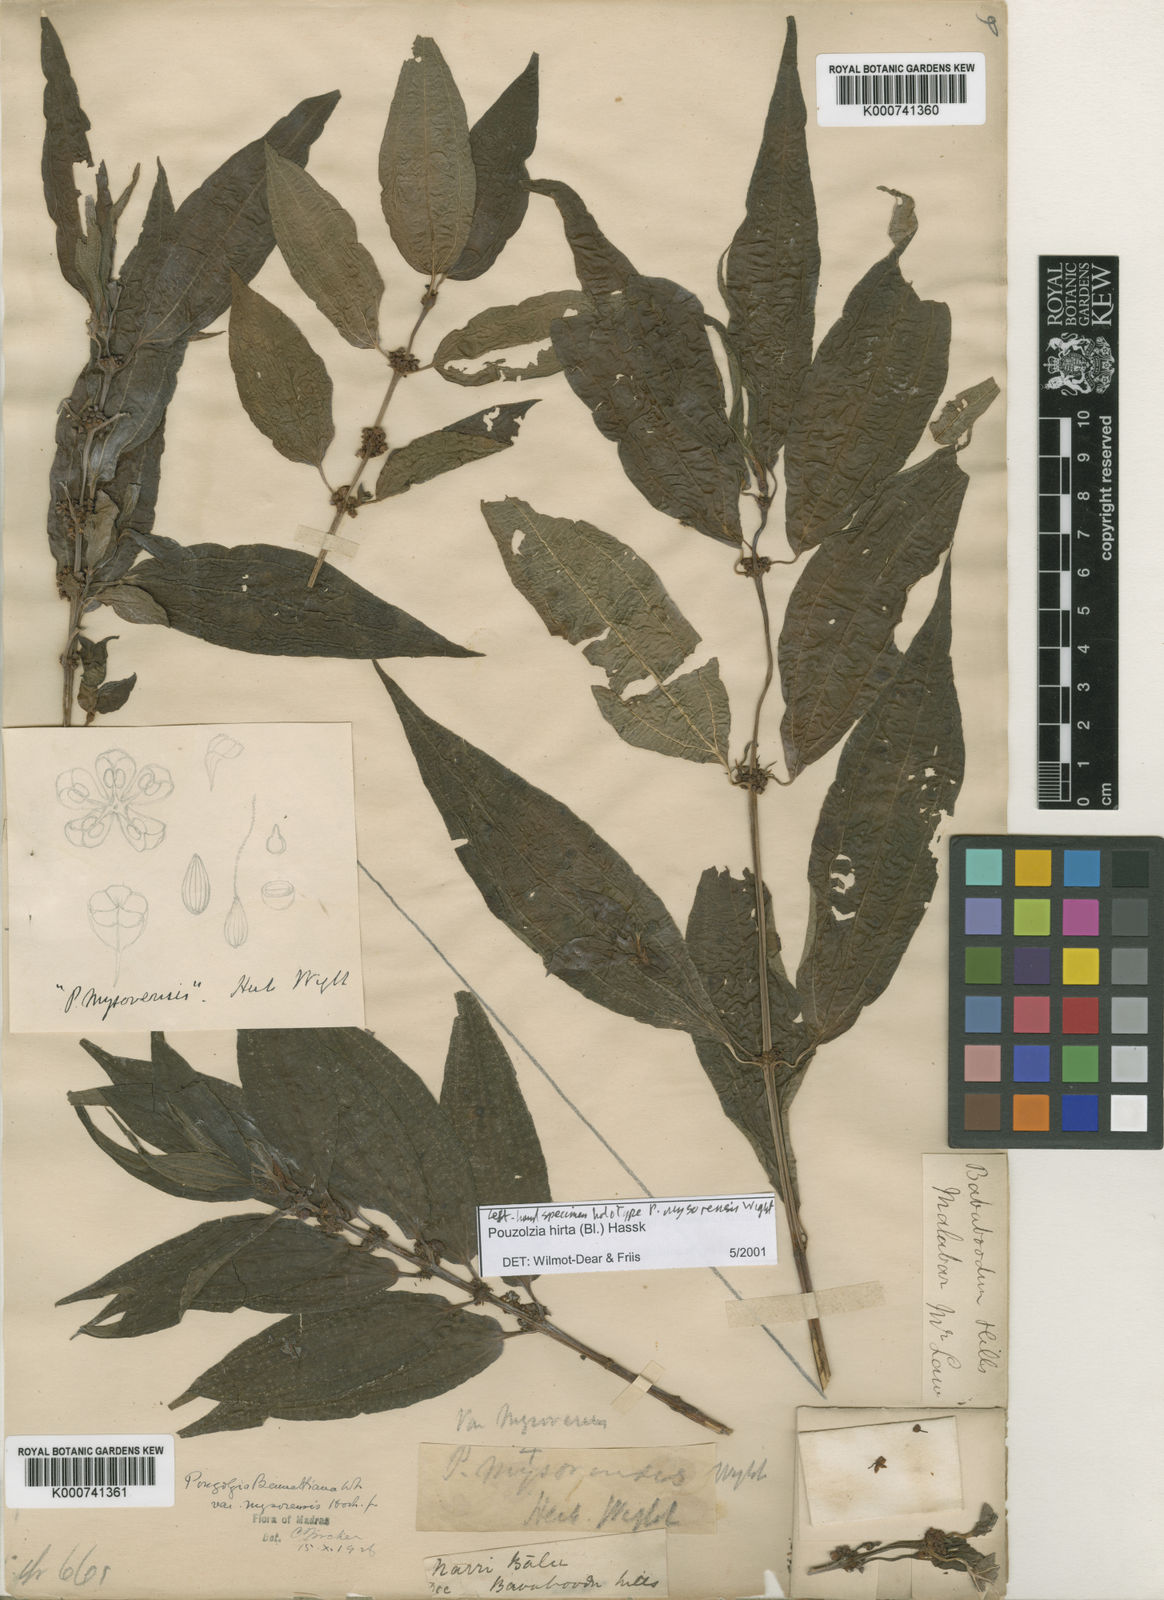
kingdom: Plantae
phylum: Tracheophyta
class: Magnoliopsida
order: Rosales
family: Urticaceae
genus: Gonostegia
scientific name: Gonostegia triandra
